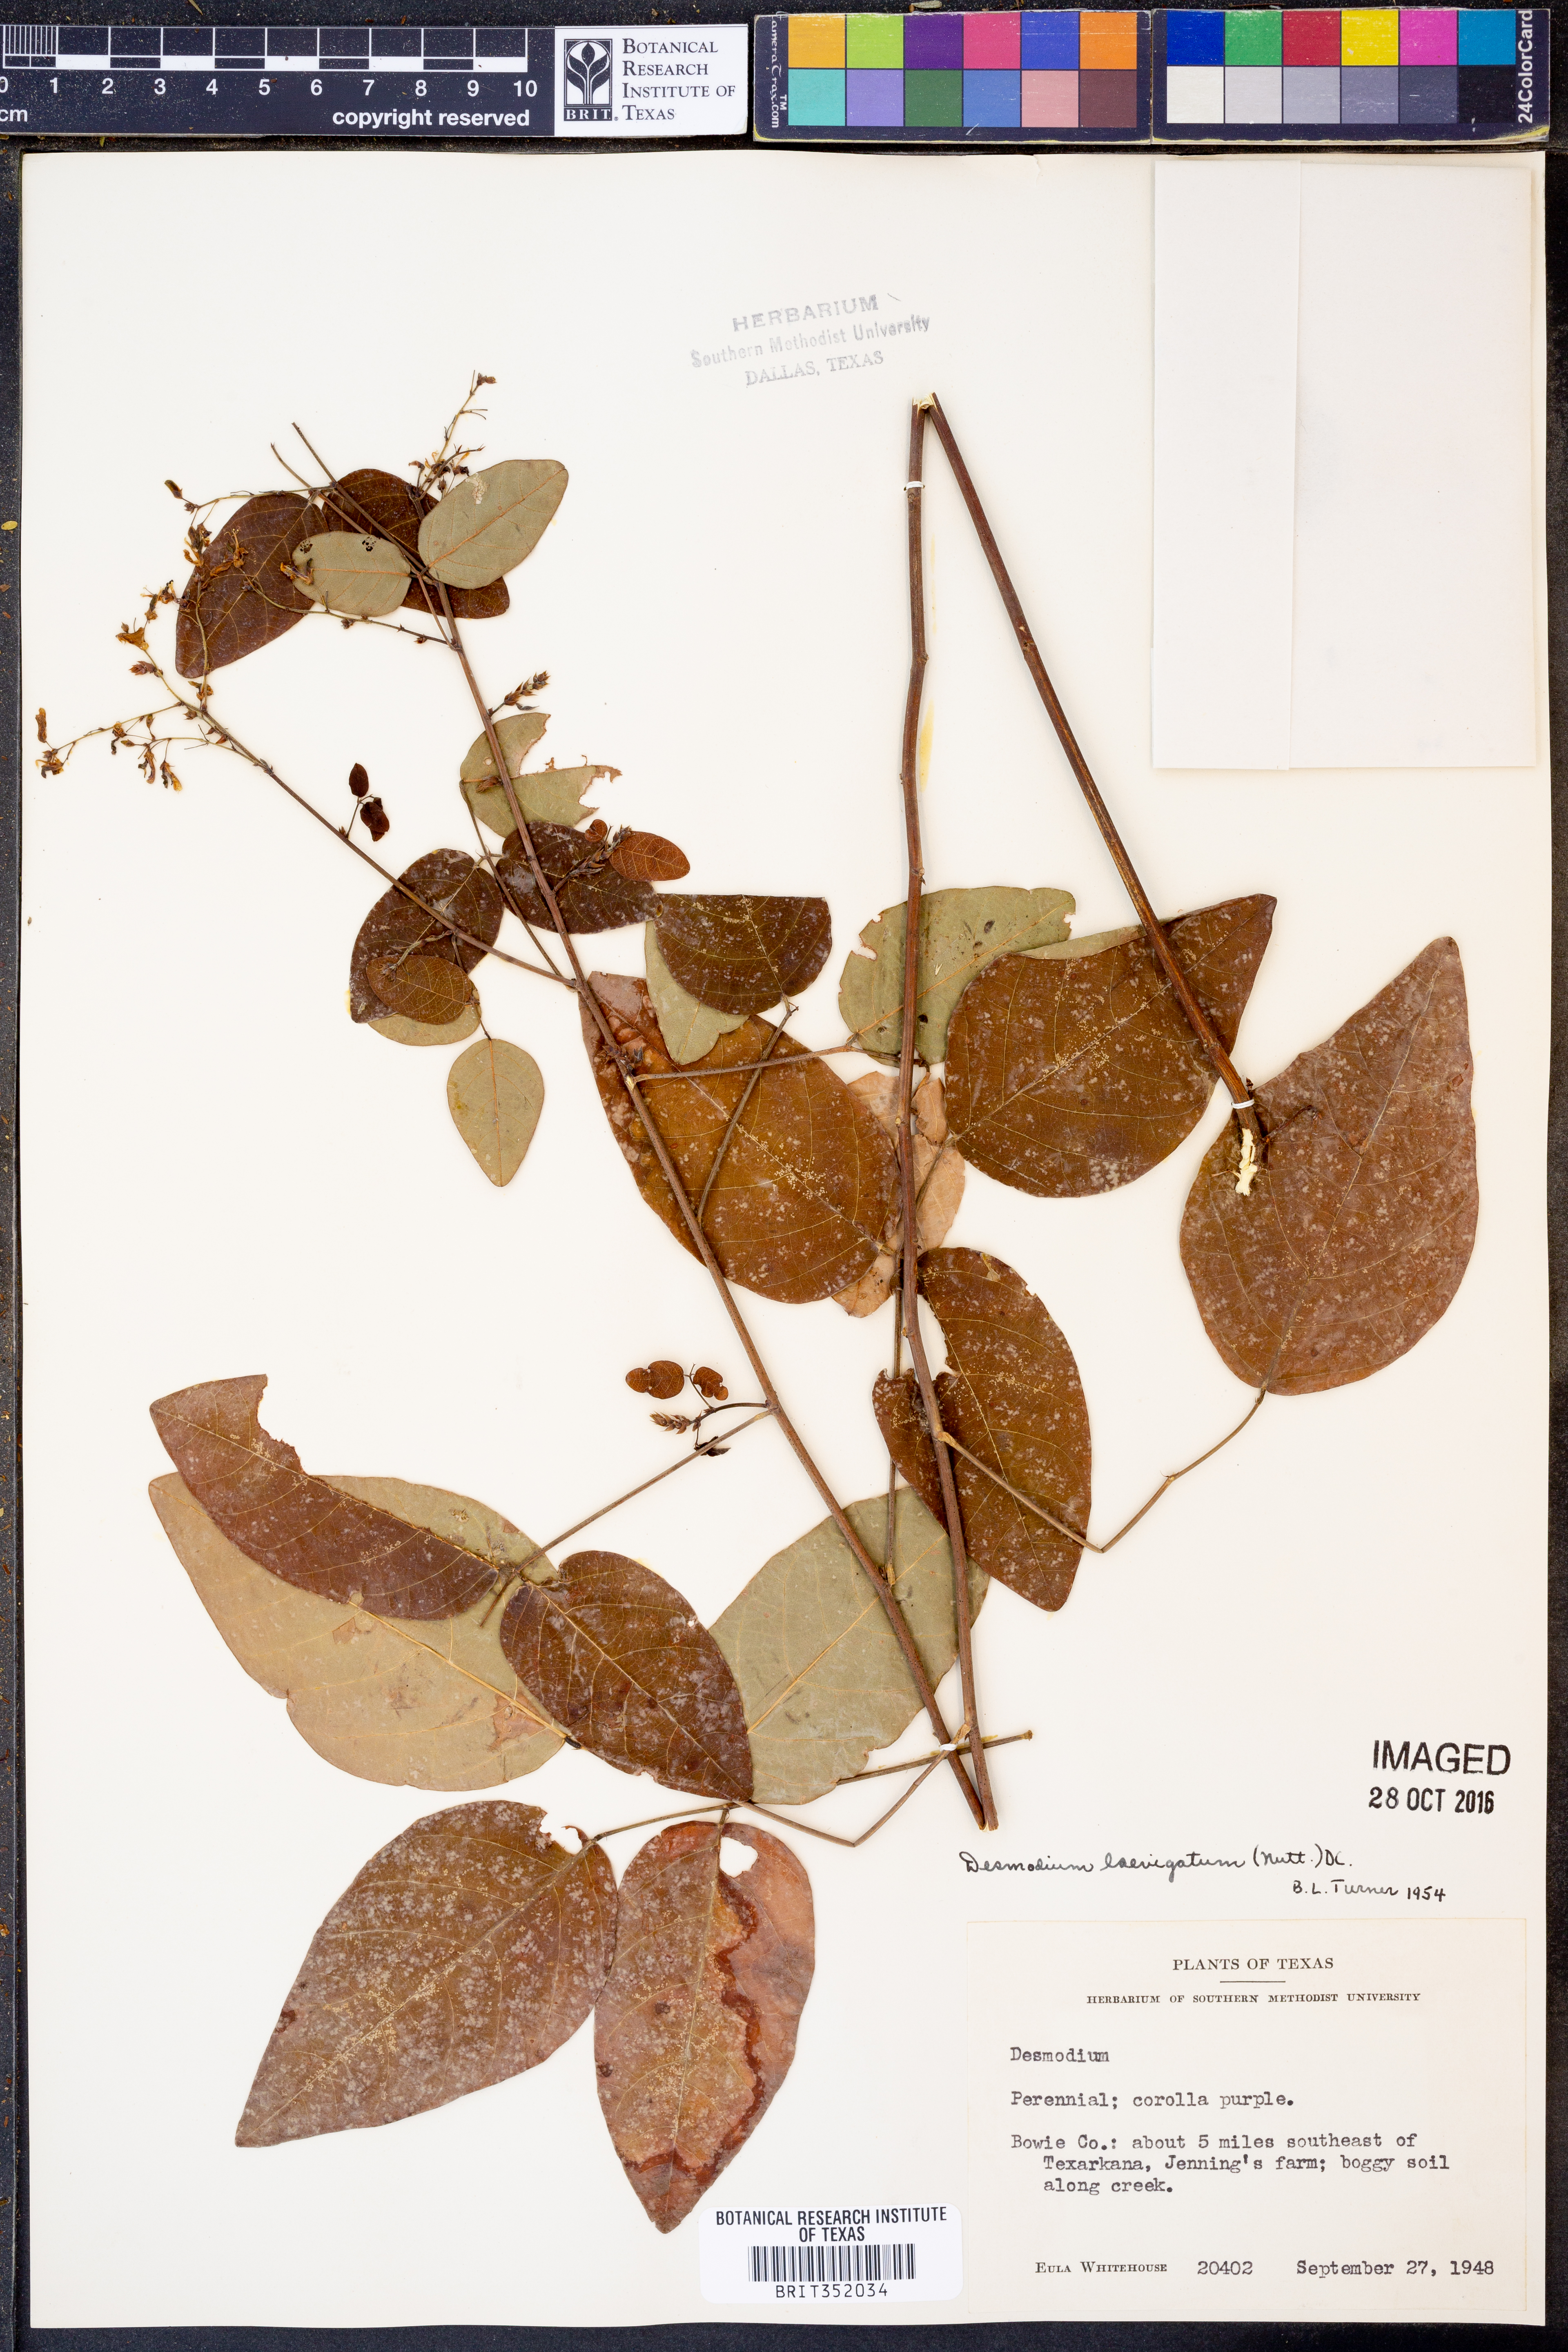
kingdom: Plantae
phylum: Tracheophyta
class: Magnoliopsida
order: Fabales
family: Fabaceae
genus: Desmodium
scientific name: Desmodium laevigatum
